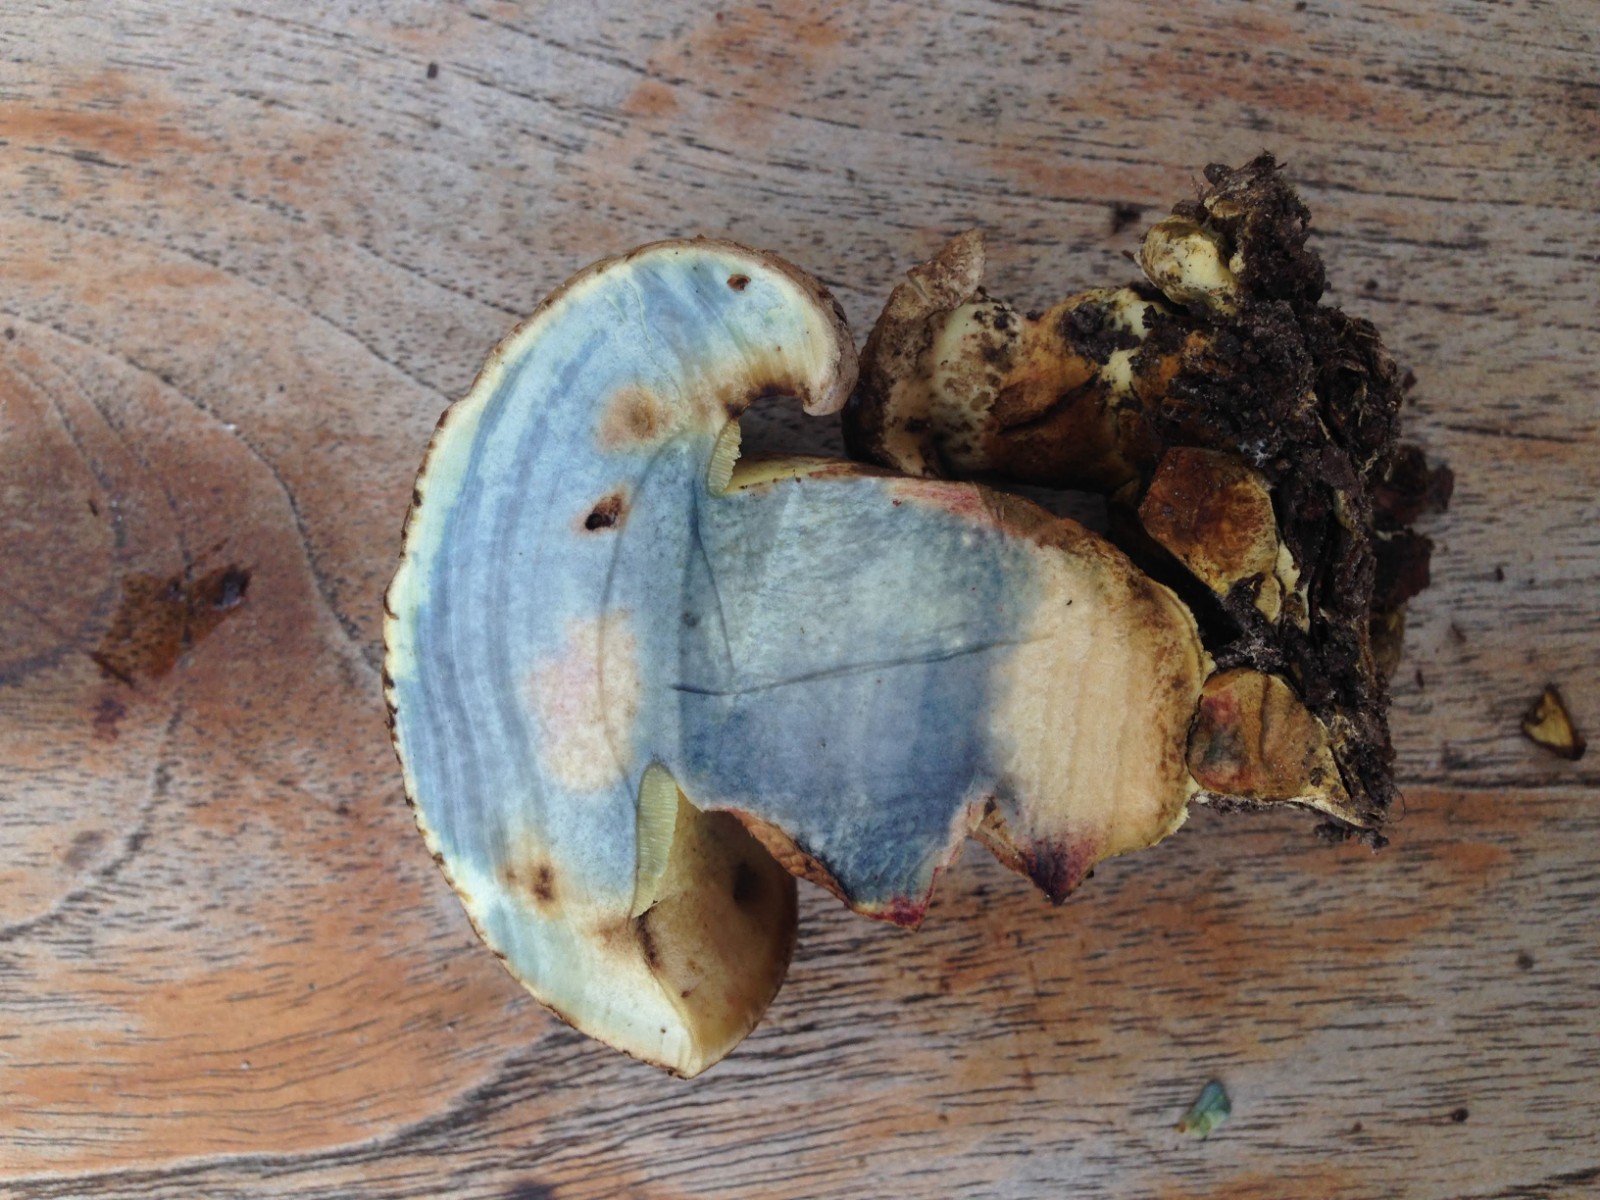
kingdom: Fungi
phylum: Basidiomycota
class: Agaricomycetes
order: Boletales
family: Boletaceae
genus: Caloboletus
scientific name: Caloboletus radicans
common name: rod-rørhat
